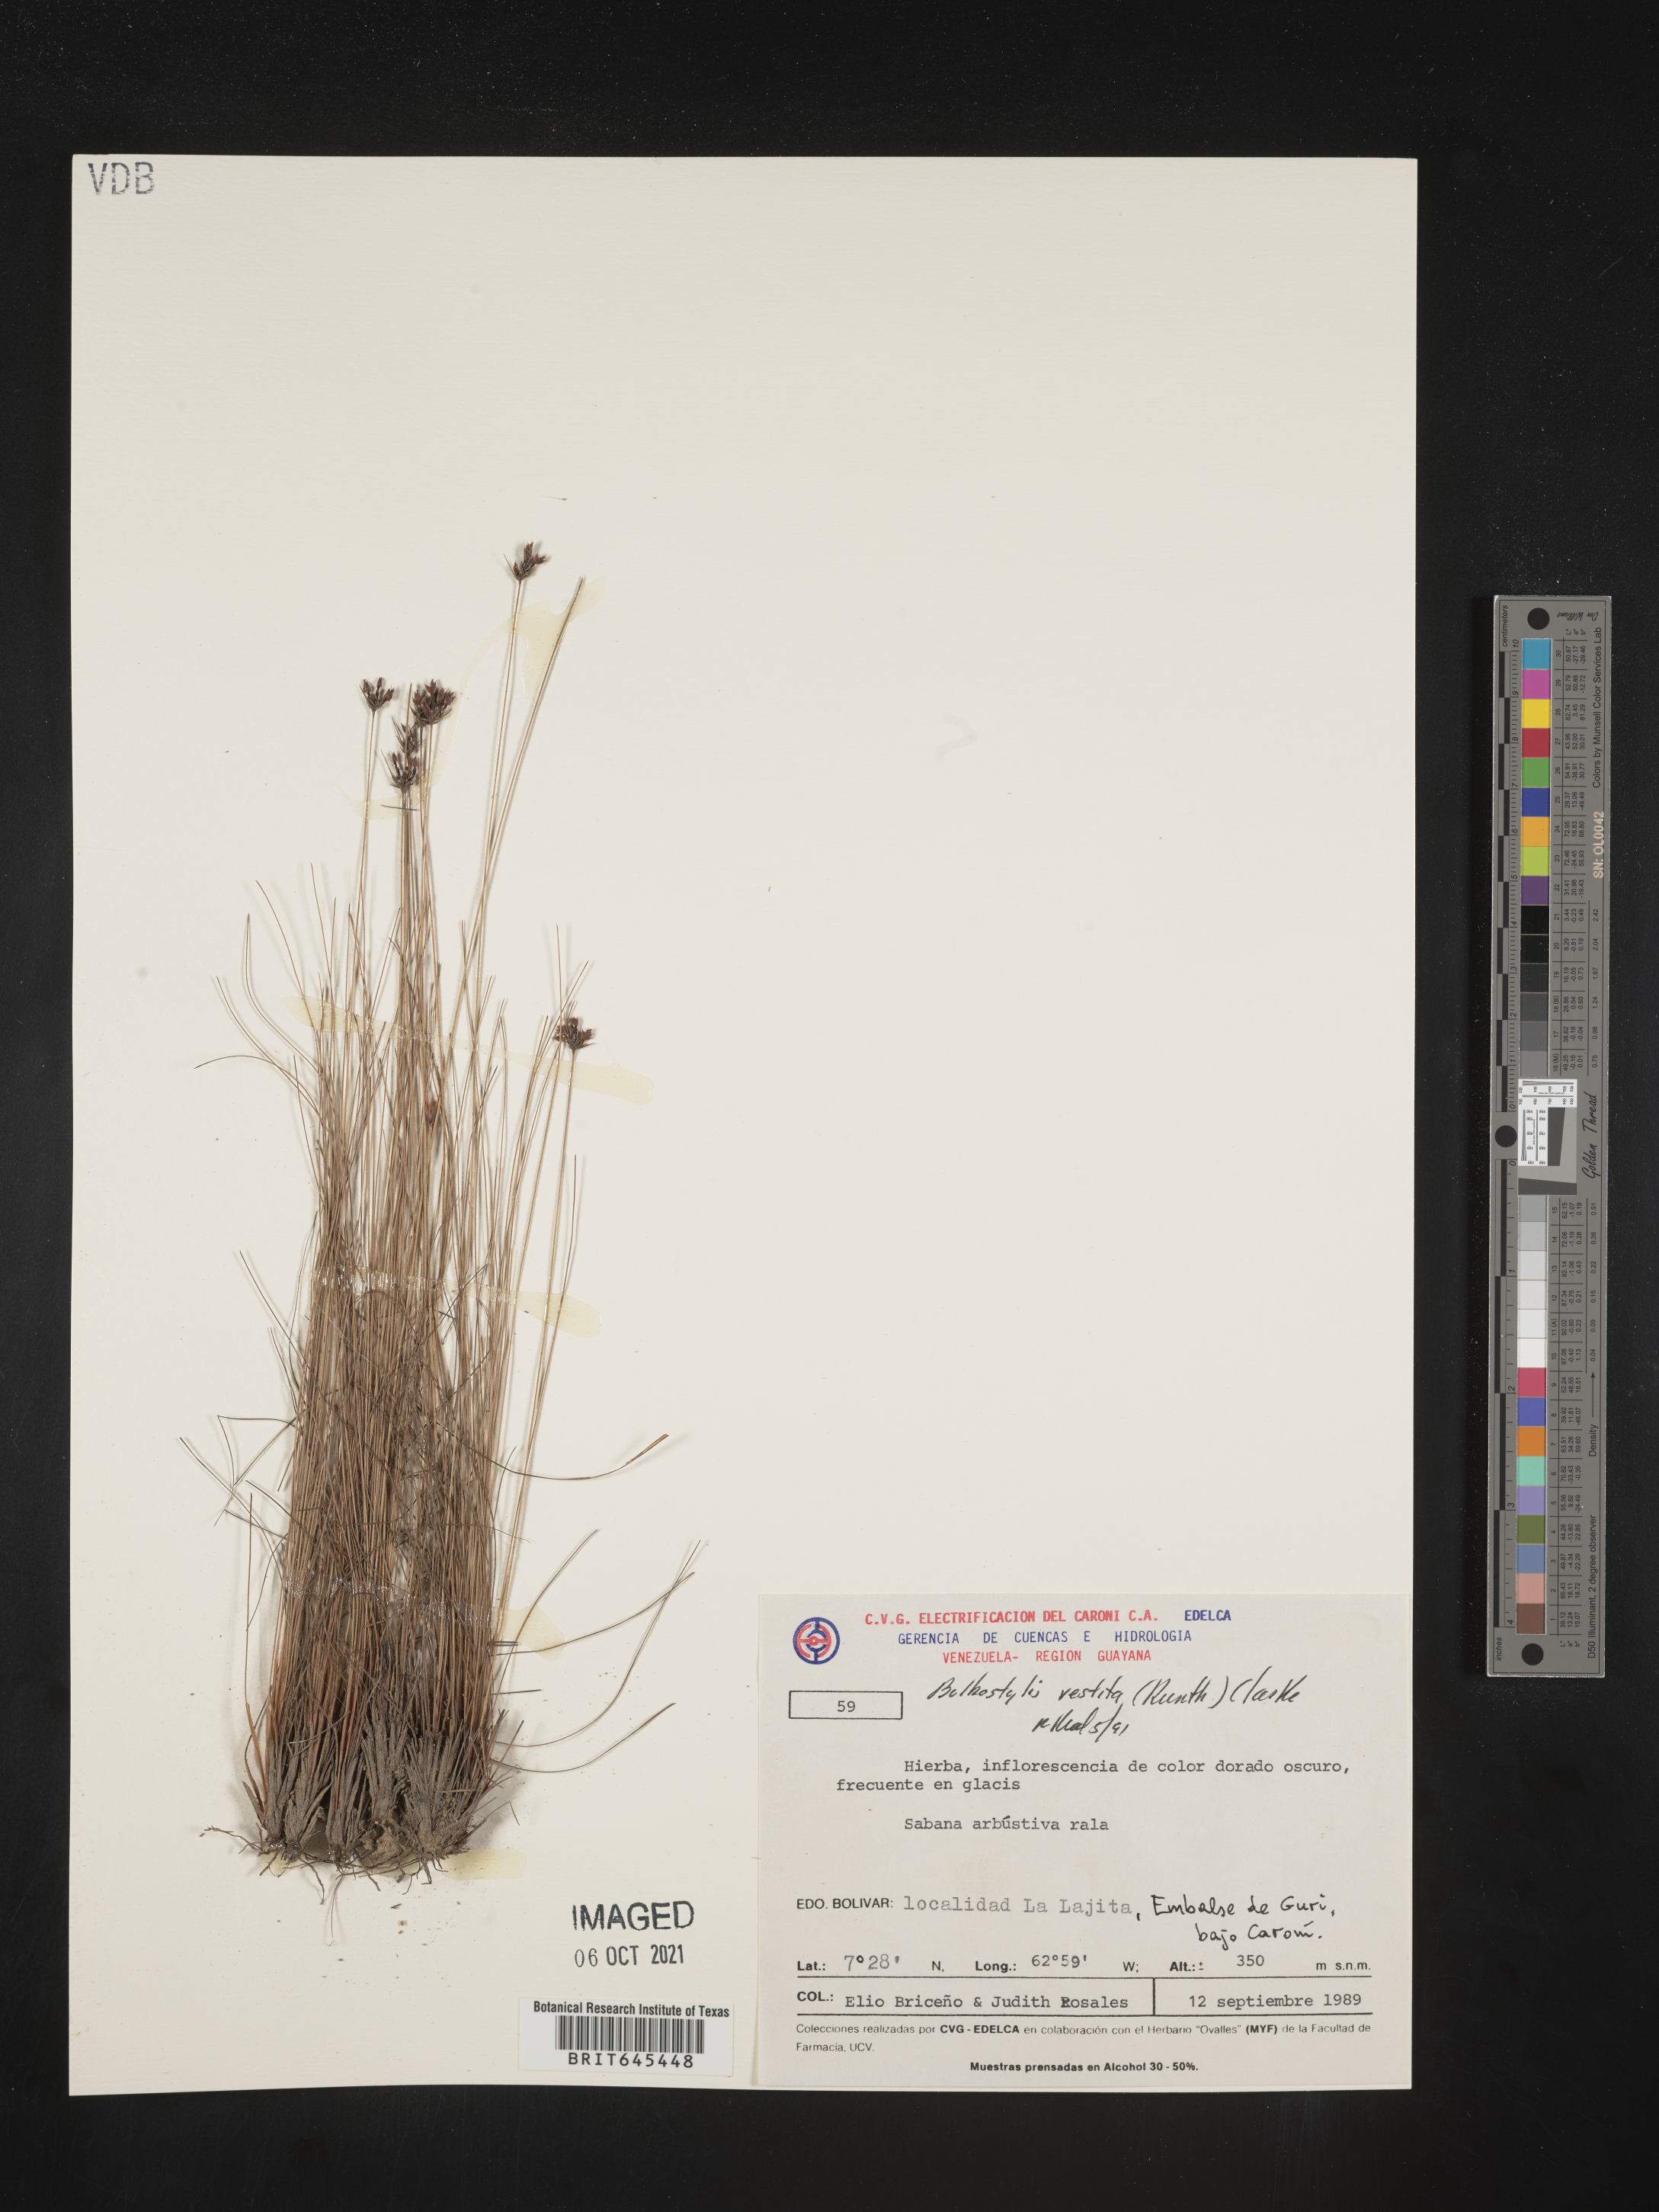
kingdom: Plantae
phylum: Tracheophyta
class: Liliopsida
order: Poales
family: Cyperaceae
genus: Bulbostylis
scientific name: Bulbostylis vestita
